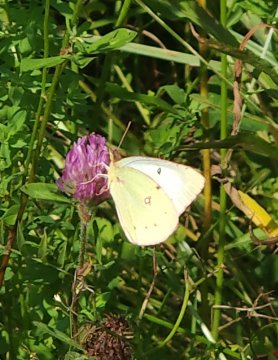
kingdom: Animalia
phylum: Arthropoda
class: Insecta
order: Lepidoptera
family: Pieridae
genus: Colias
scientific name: Colias philodice
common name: Clouded Sulphur
